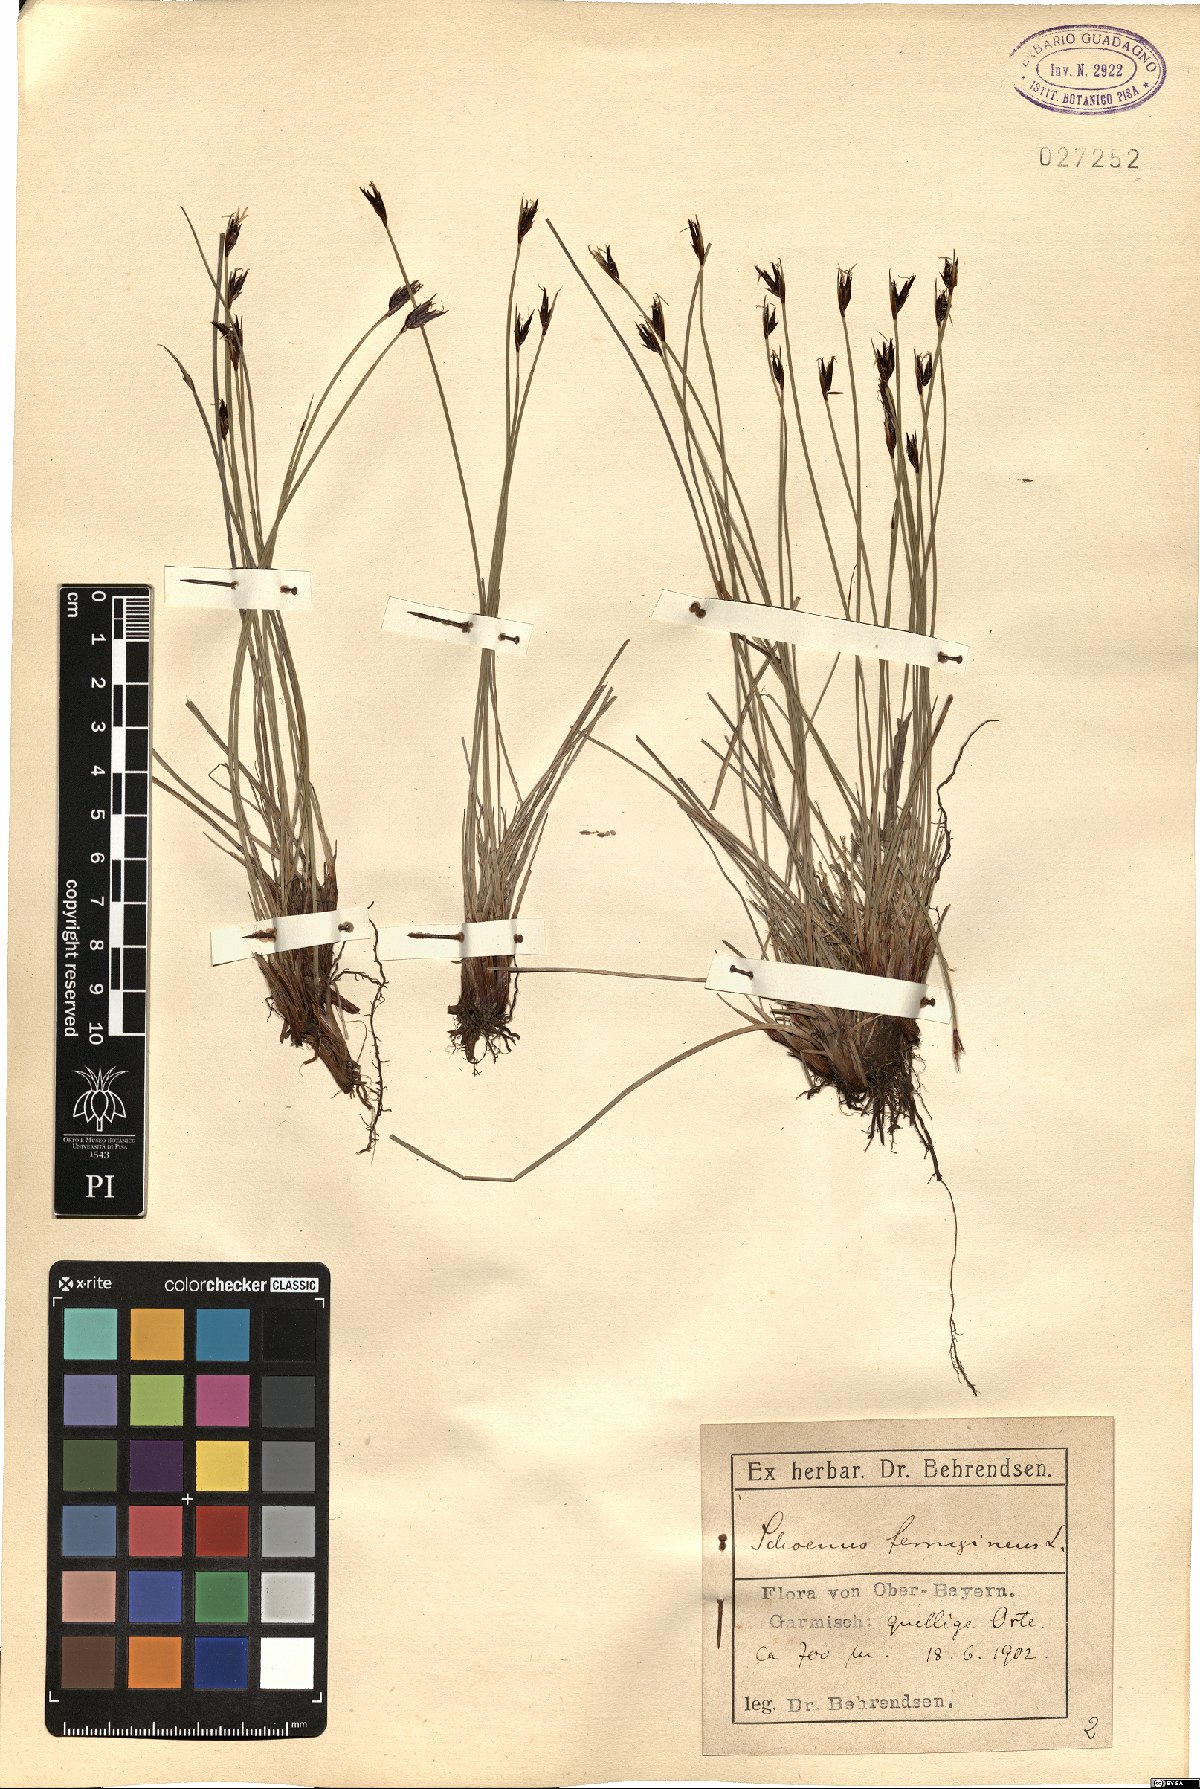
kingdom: Plantae
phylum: Tracheophyta
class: Liliopsida
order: Poales
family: Cyperaceae
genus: Schoenus
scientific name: Schoenus ferrugineus
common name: Brown bog-rush
